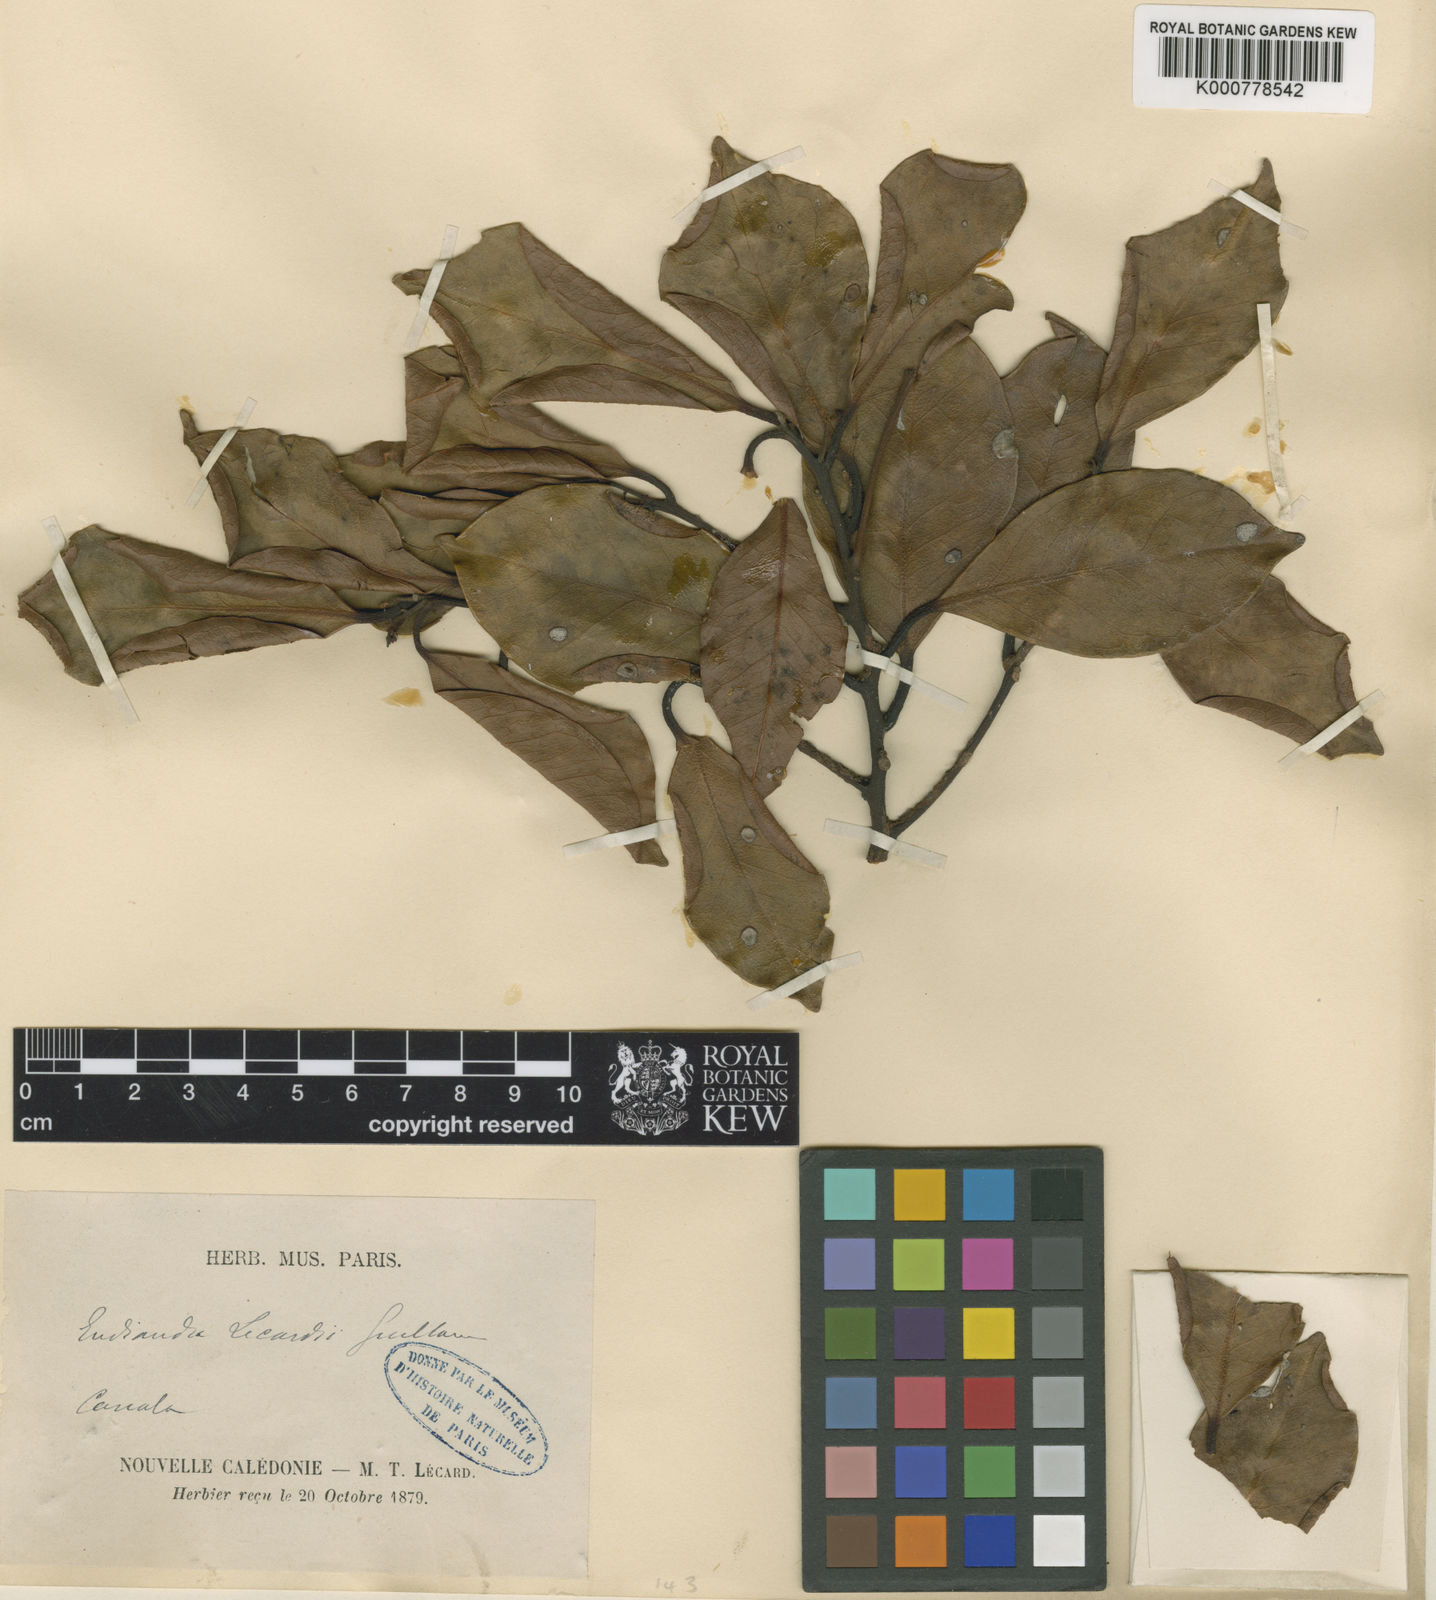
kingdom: Plantae
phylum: Tracheophyta
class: Magnoliopsida
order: Laurales
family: Lauraceae
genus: Endiandra
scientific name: Endiandra lecardii
